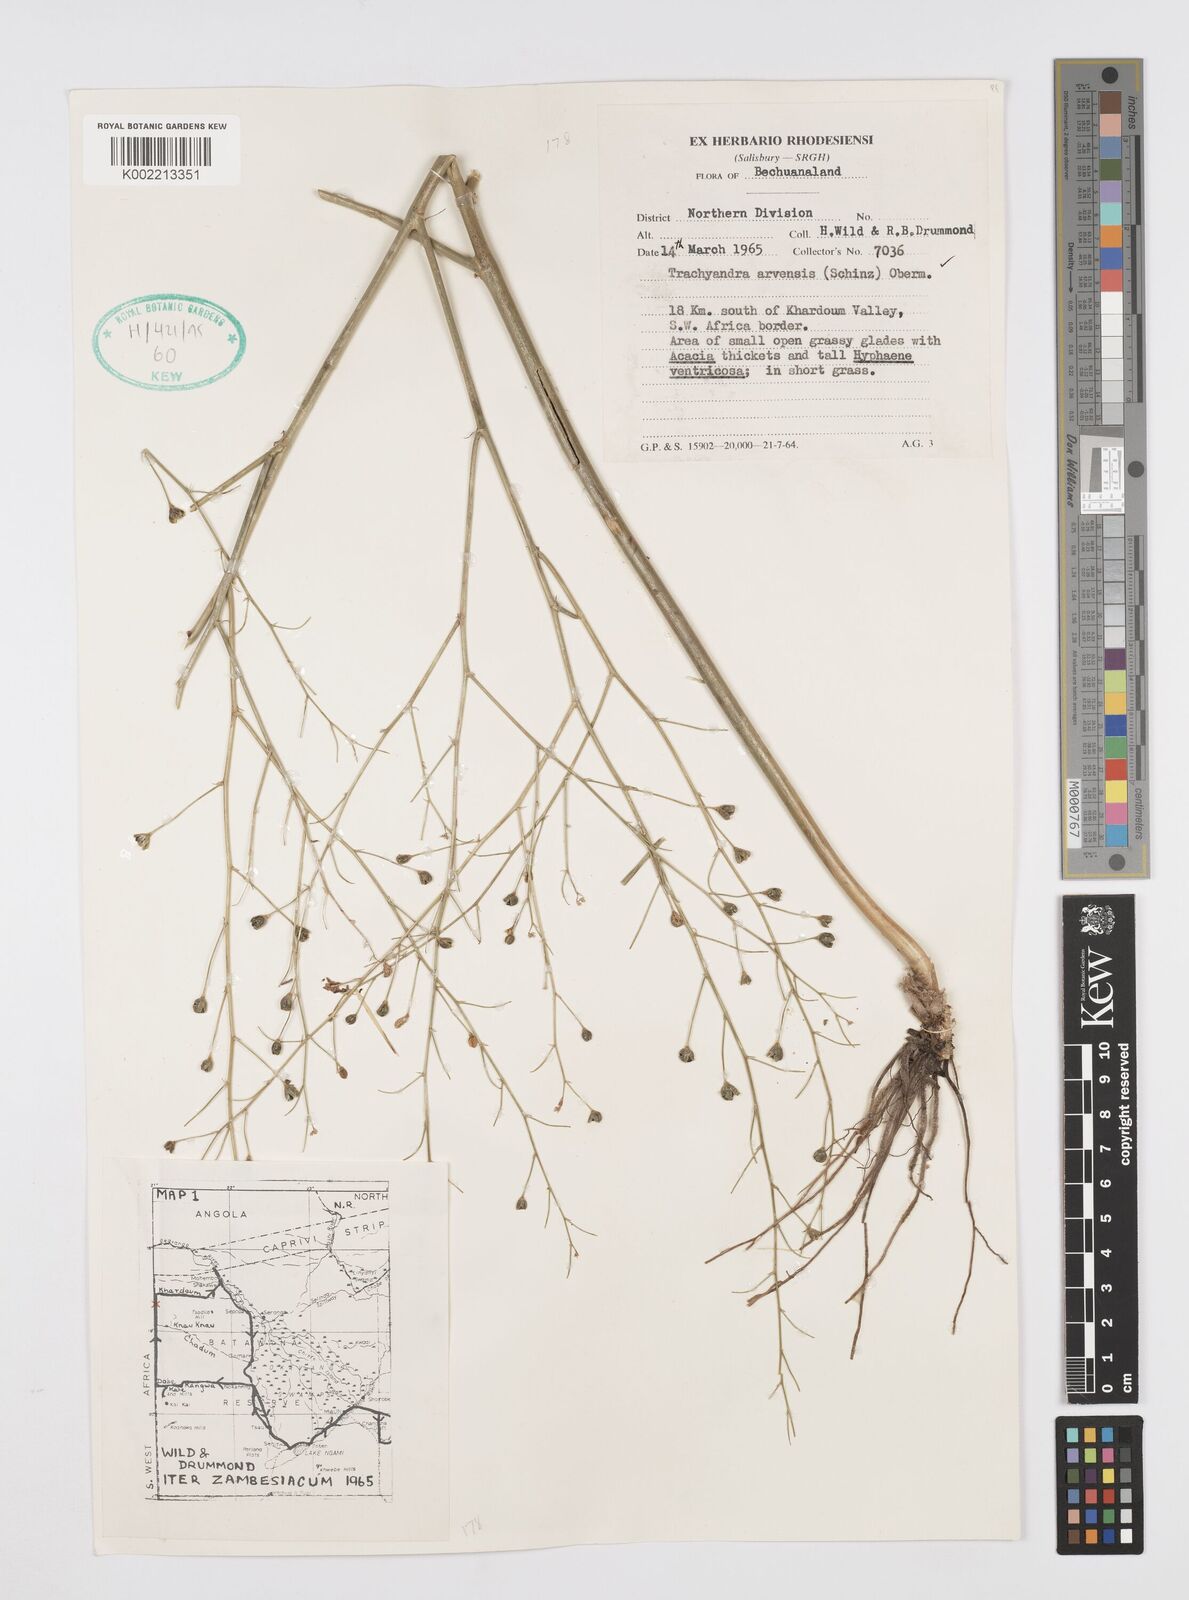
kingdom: Plantae
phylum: Tracheophyta
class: Liliopsida
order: Asparagales
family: Asphodelaceae
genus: Trachyandra
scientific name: Trachyandra arvensis
